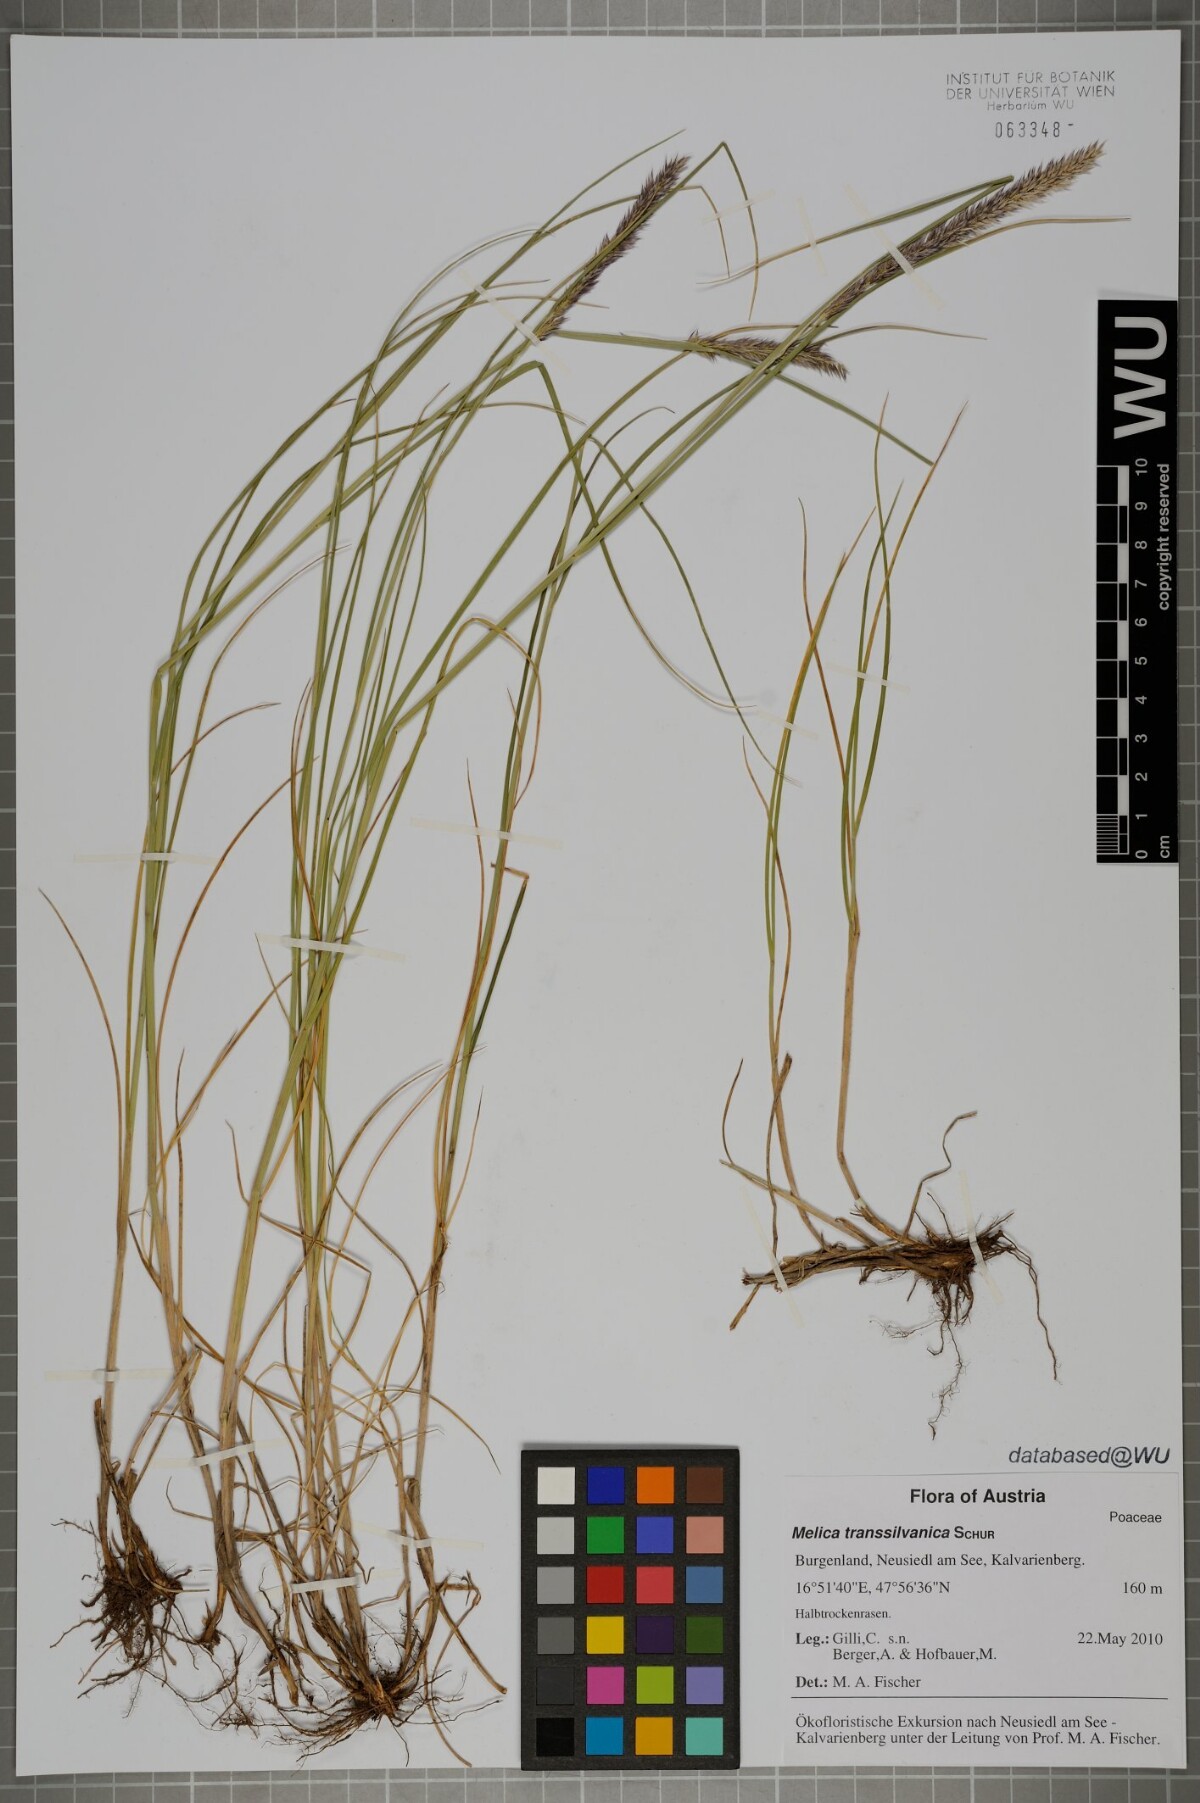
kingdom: Plantae
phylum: Tracheophyta
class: Liliopsida
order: Poales
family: Poaceae
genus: Melica
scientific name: Melica transsilvanica
